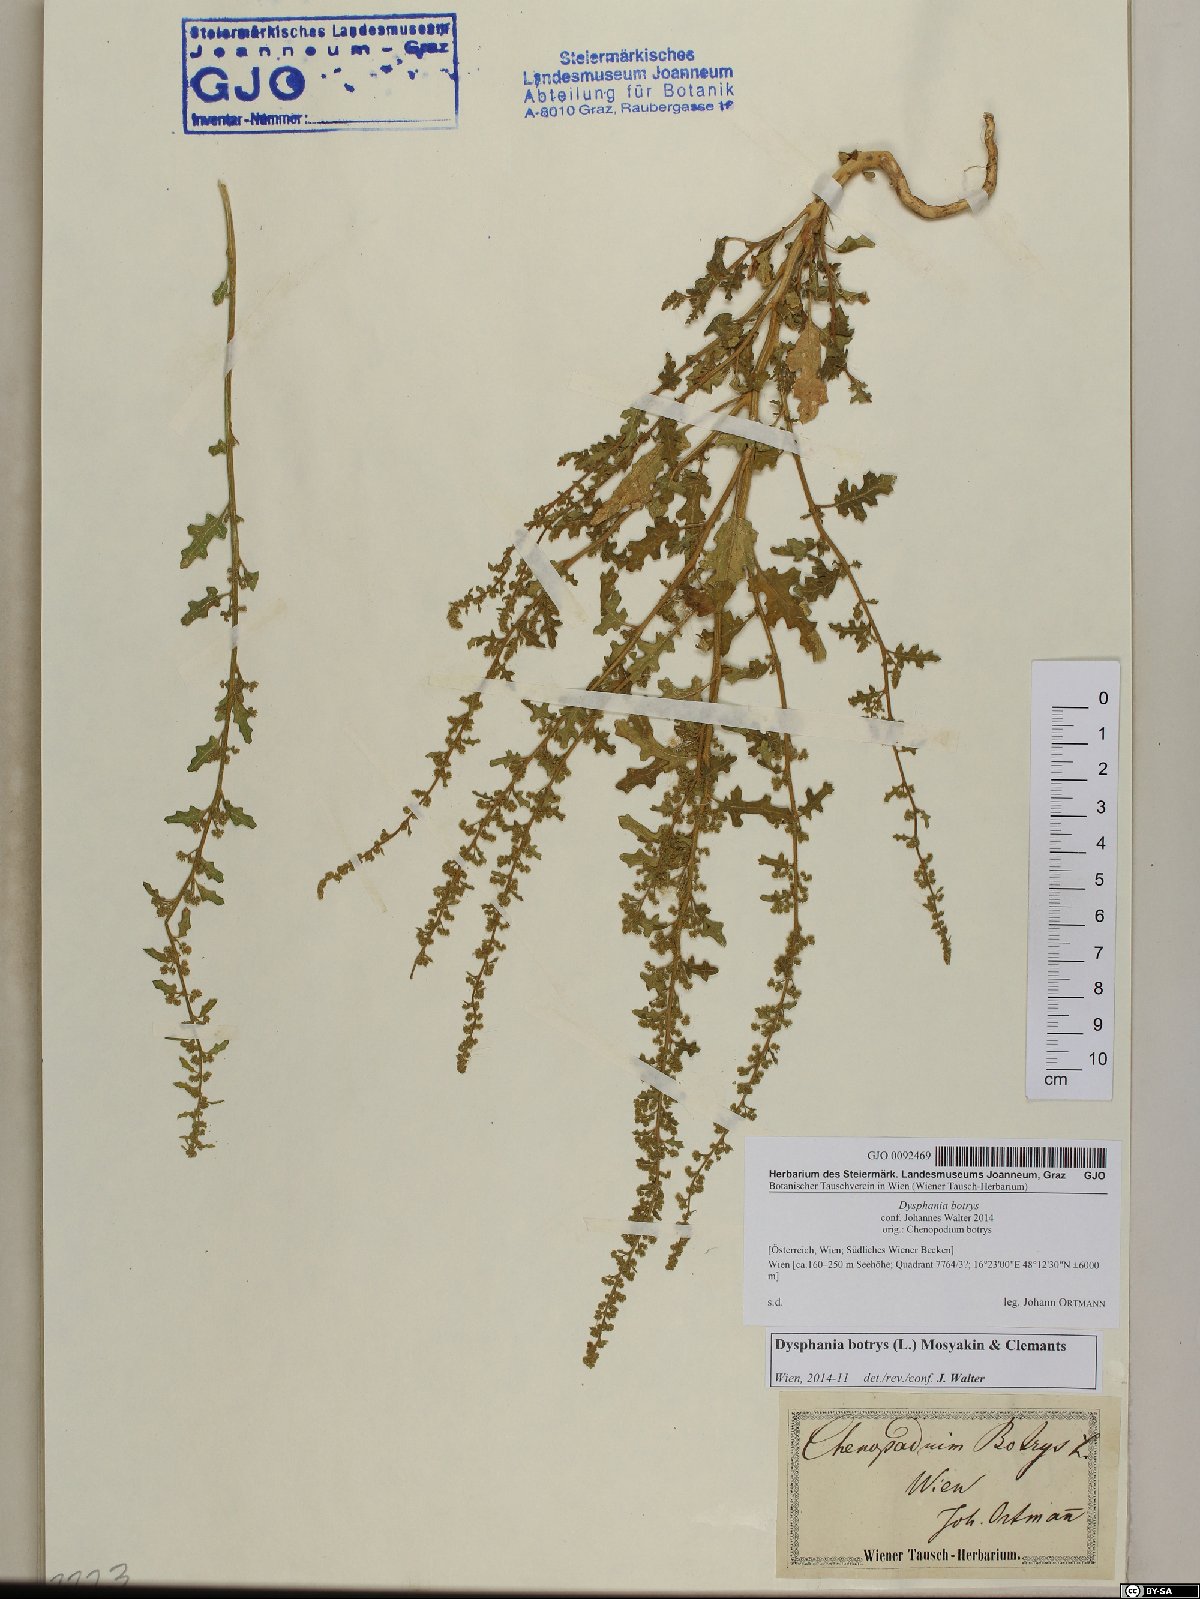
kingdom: Plantae
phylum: Tracheophyta
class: Magnoliopsida
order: Caryophyllales
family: Amaranthaceae
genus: Dysphania
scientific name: Dysphania botrys
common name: Feather-geranium
